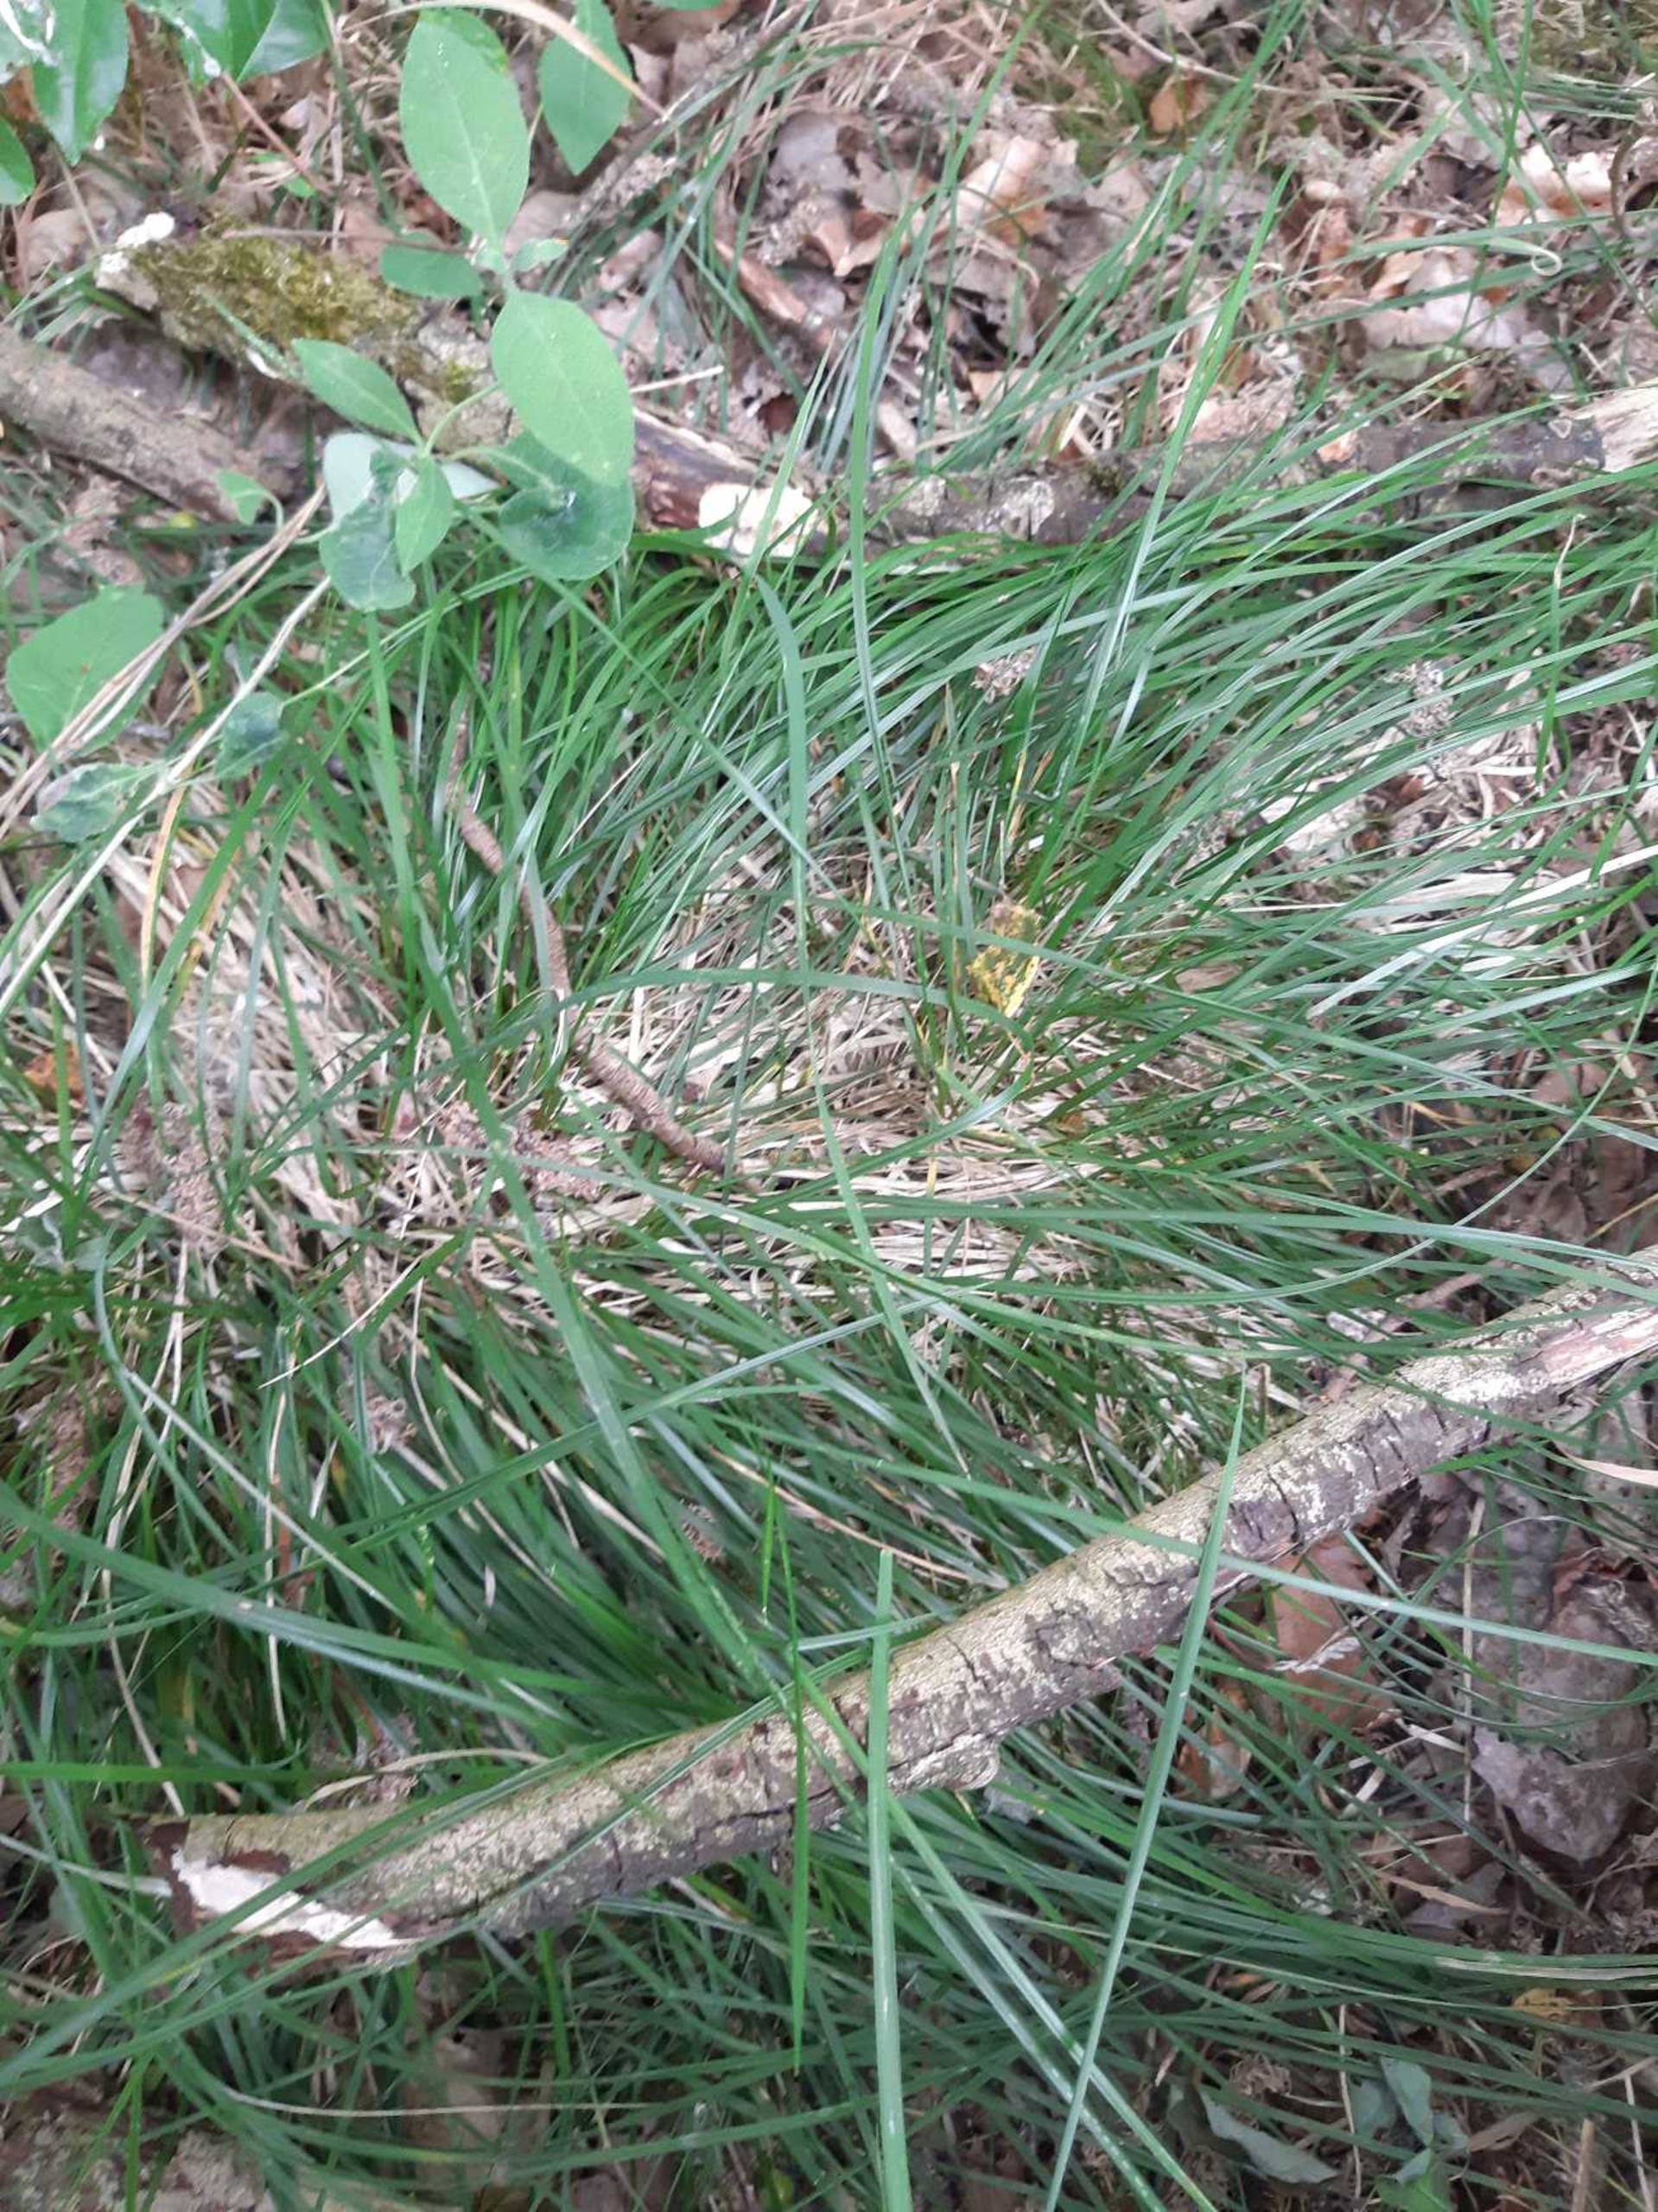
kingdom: Plantae
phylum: Tracheophyta
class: Liliopsida
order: Poales
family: Poaceae
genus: Deschampsia
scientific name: Deschampsia cespitosa
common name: Mose-bunke
